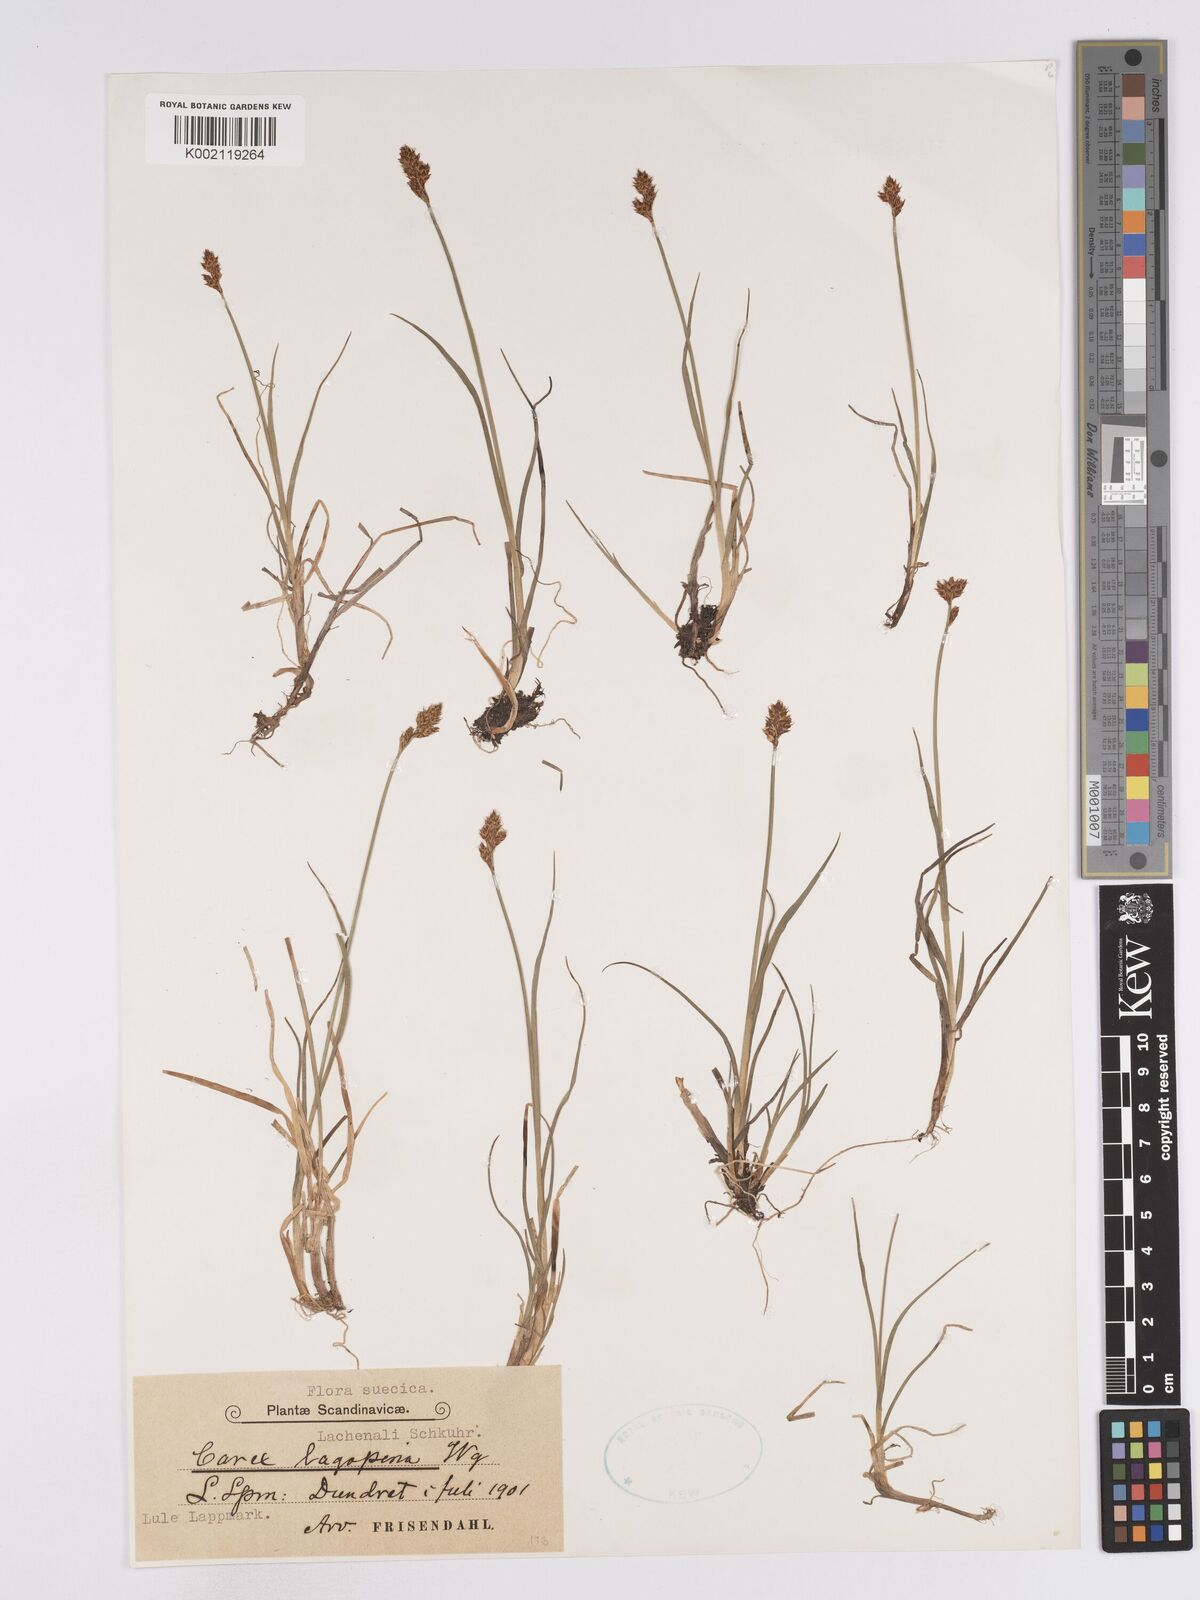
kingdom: Plantae
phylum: Tracheophyta
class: Liliopsida
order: Poales
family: Cyperaceae
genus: Carex
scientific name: Carex lachenalii
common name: Hare's-foot sedge
